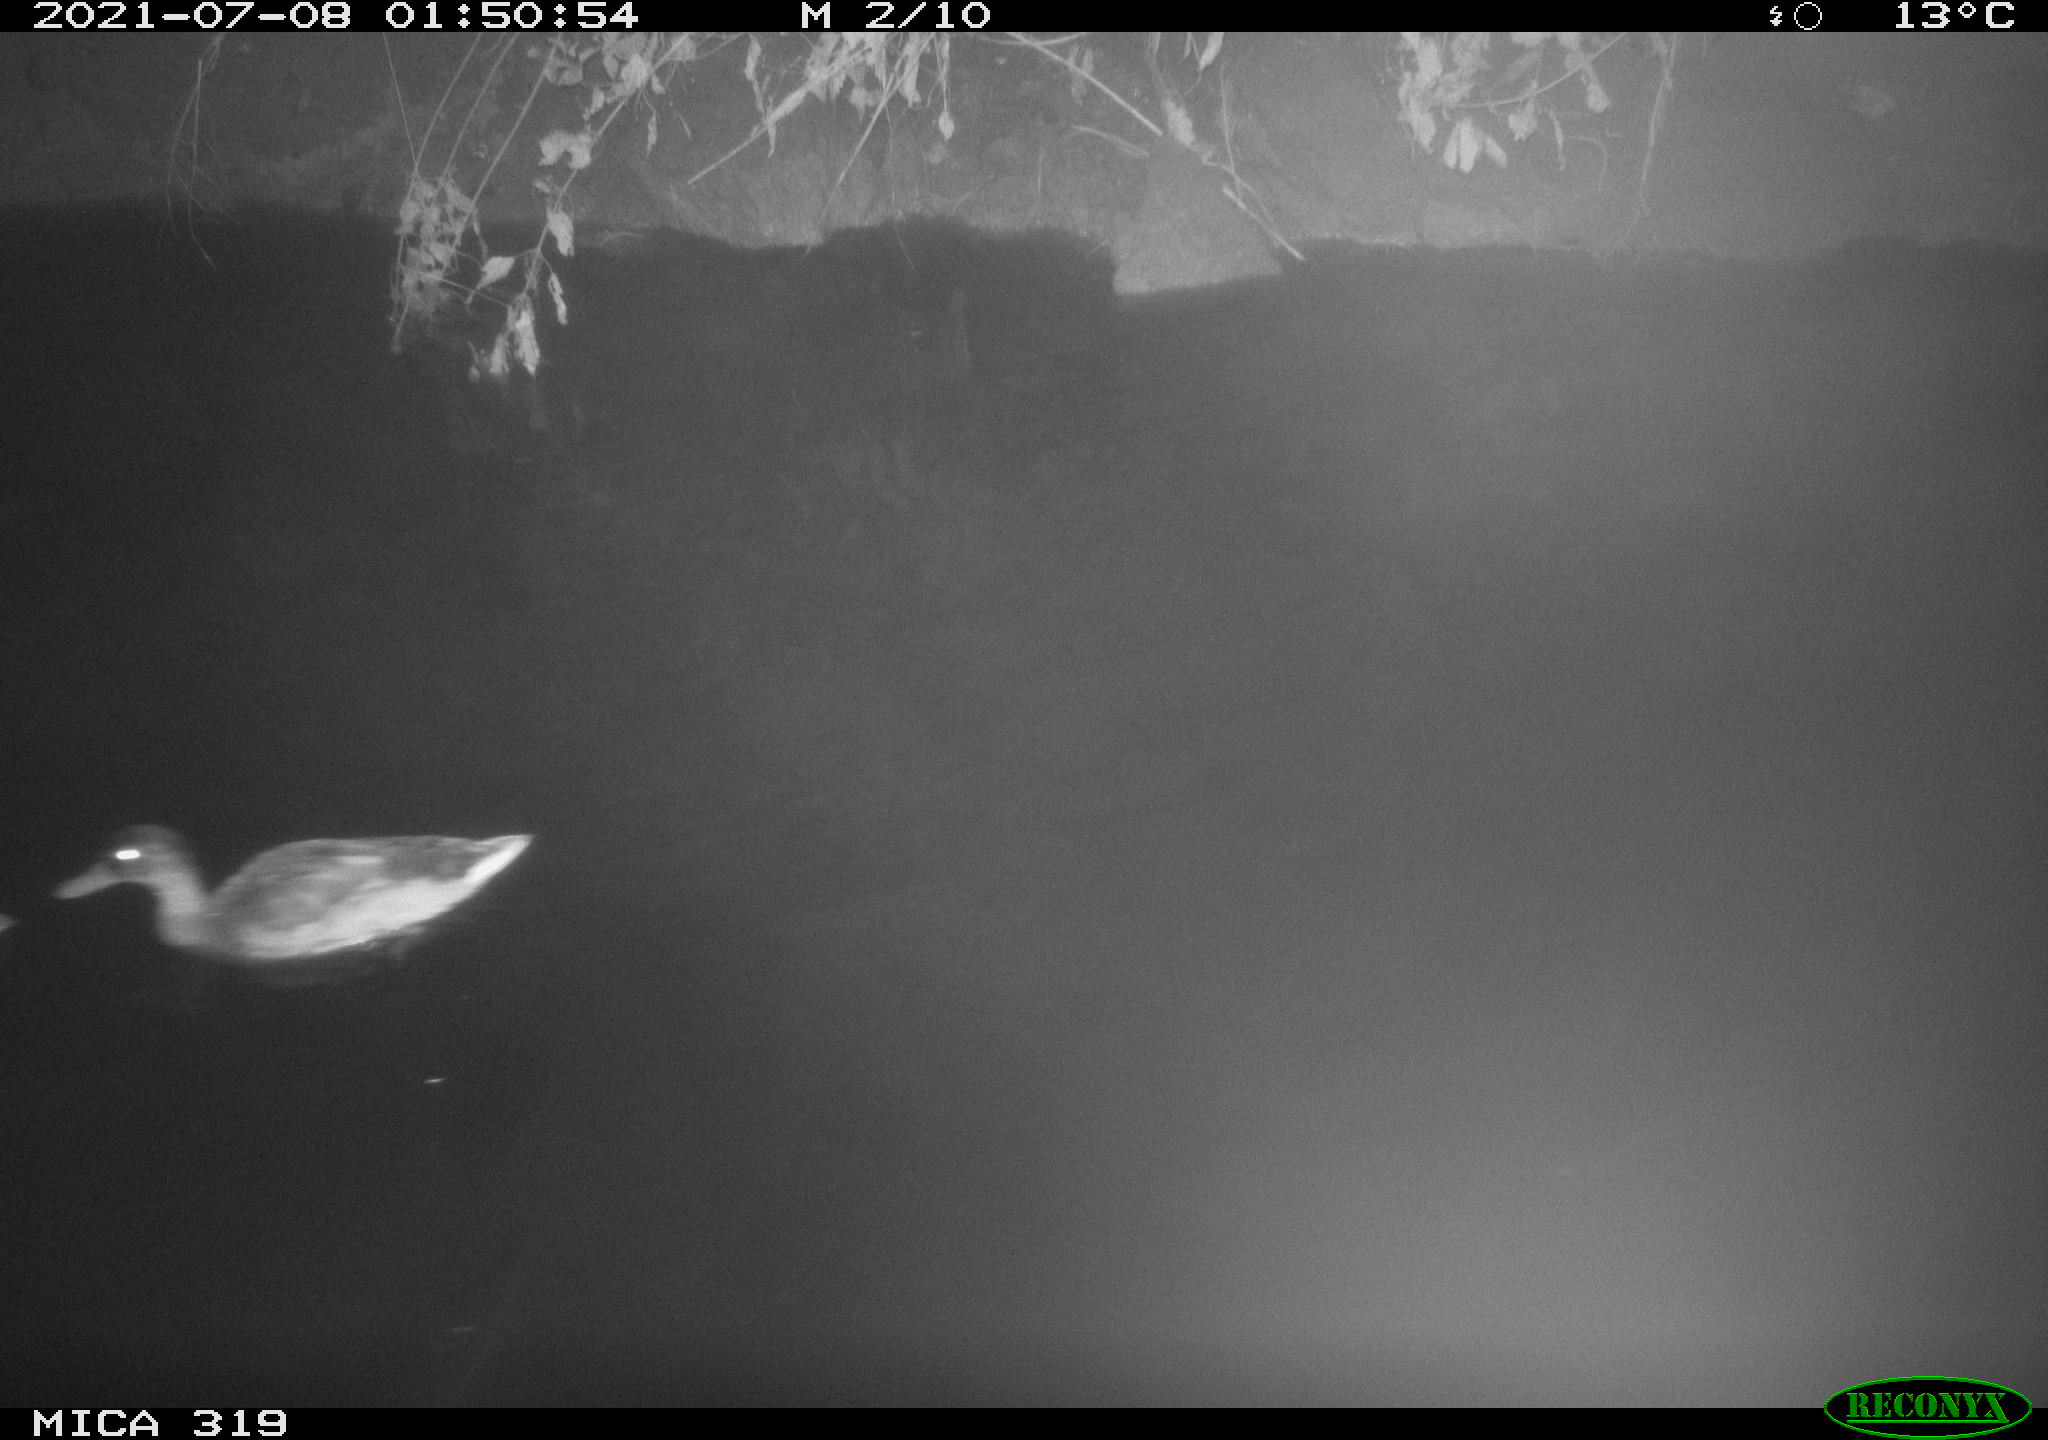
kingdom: Animalia
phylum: Chordata
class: Aves
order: Anseriformes
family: Anatidae
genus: Anas
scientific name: Anas platyrhynchos
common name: Mallard
